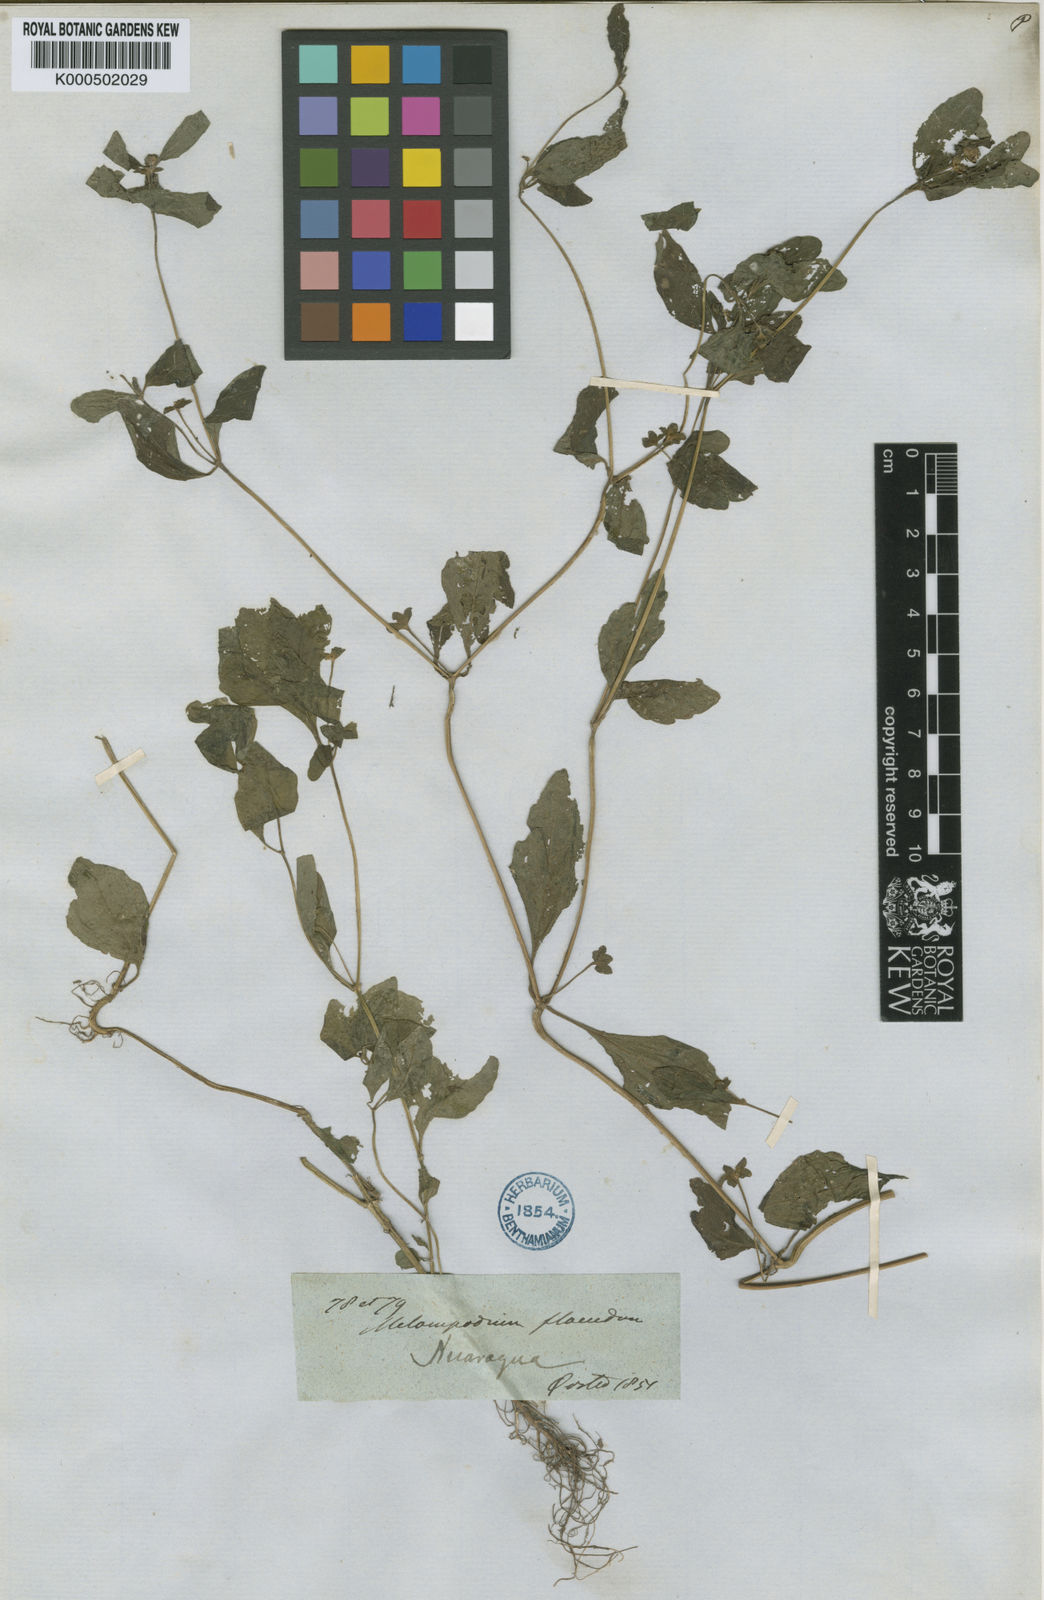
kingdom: Plantae
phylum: Tracheophyta
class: Magnoliopsida
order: Asterales
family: Asteraceae
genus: Melampodium
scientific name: Melampodium divaricatum
